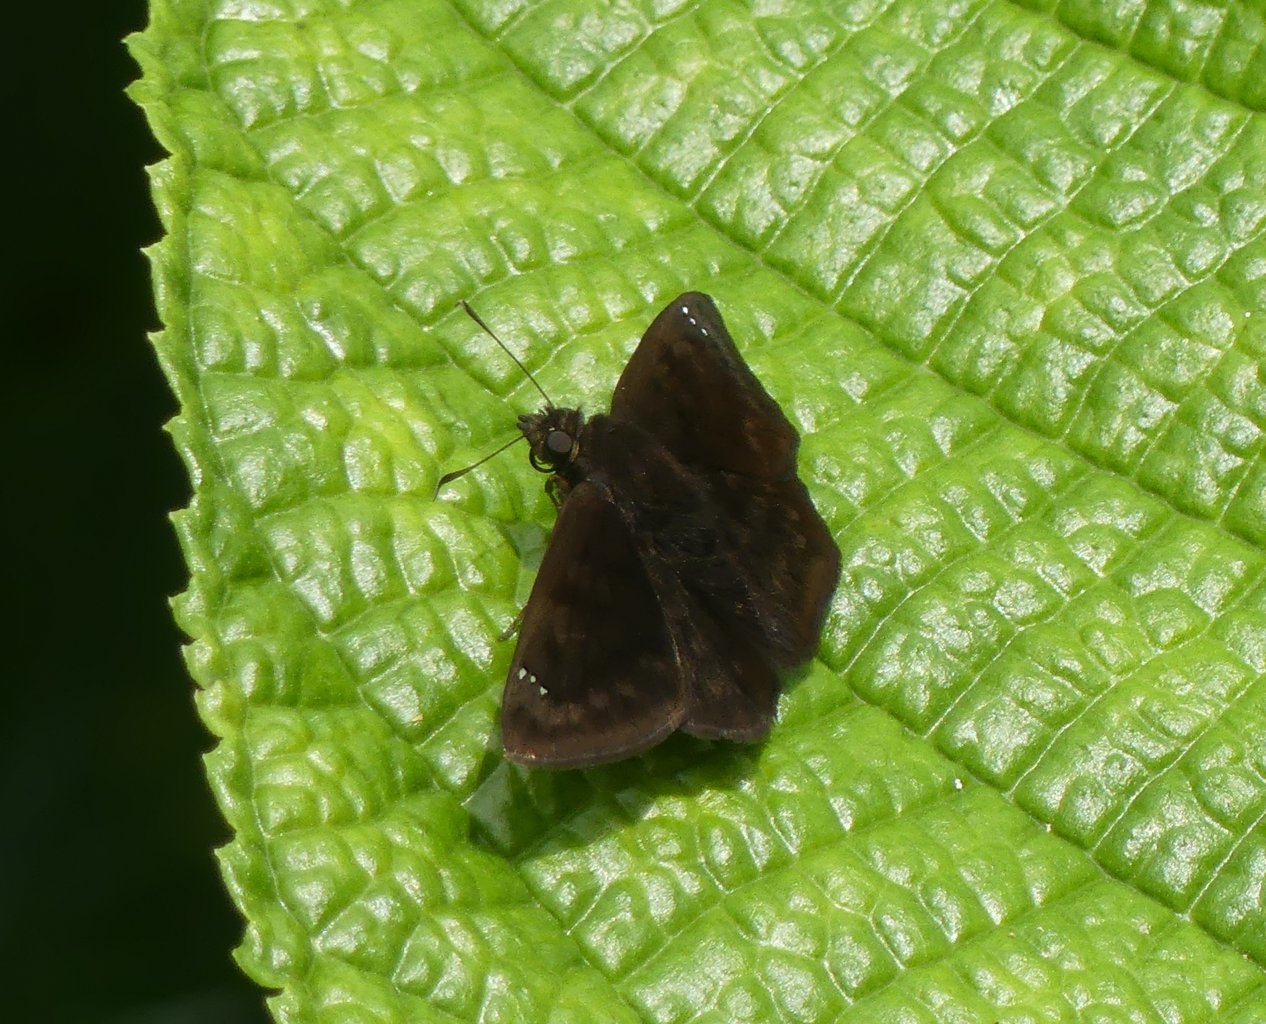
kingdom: Animalia
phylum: Arthropoda
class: Insecta
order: Lepidoptera
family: Hesperiidae
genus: Pachyneuria
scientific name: Pachyneuria licisca
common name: Immaculate Tufted-Skipper
